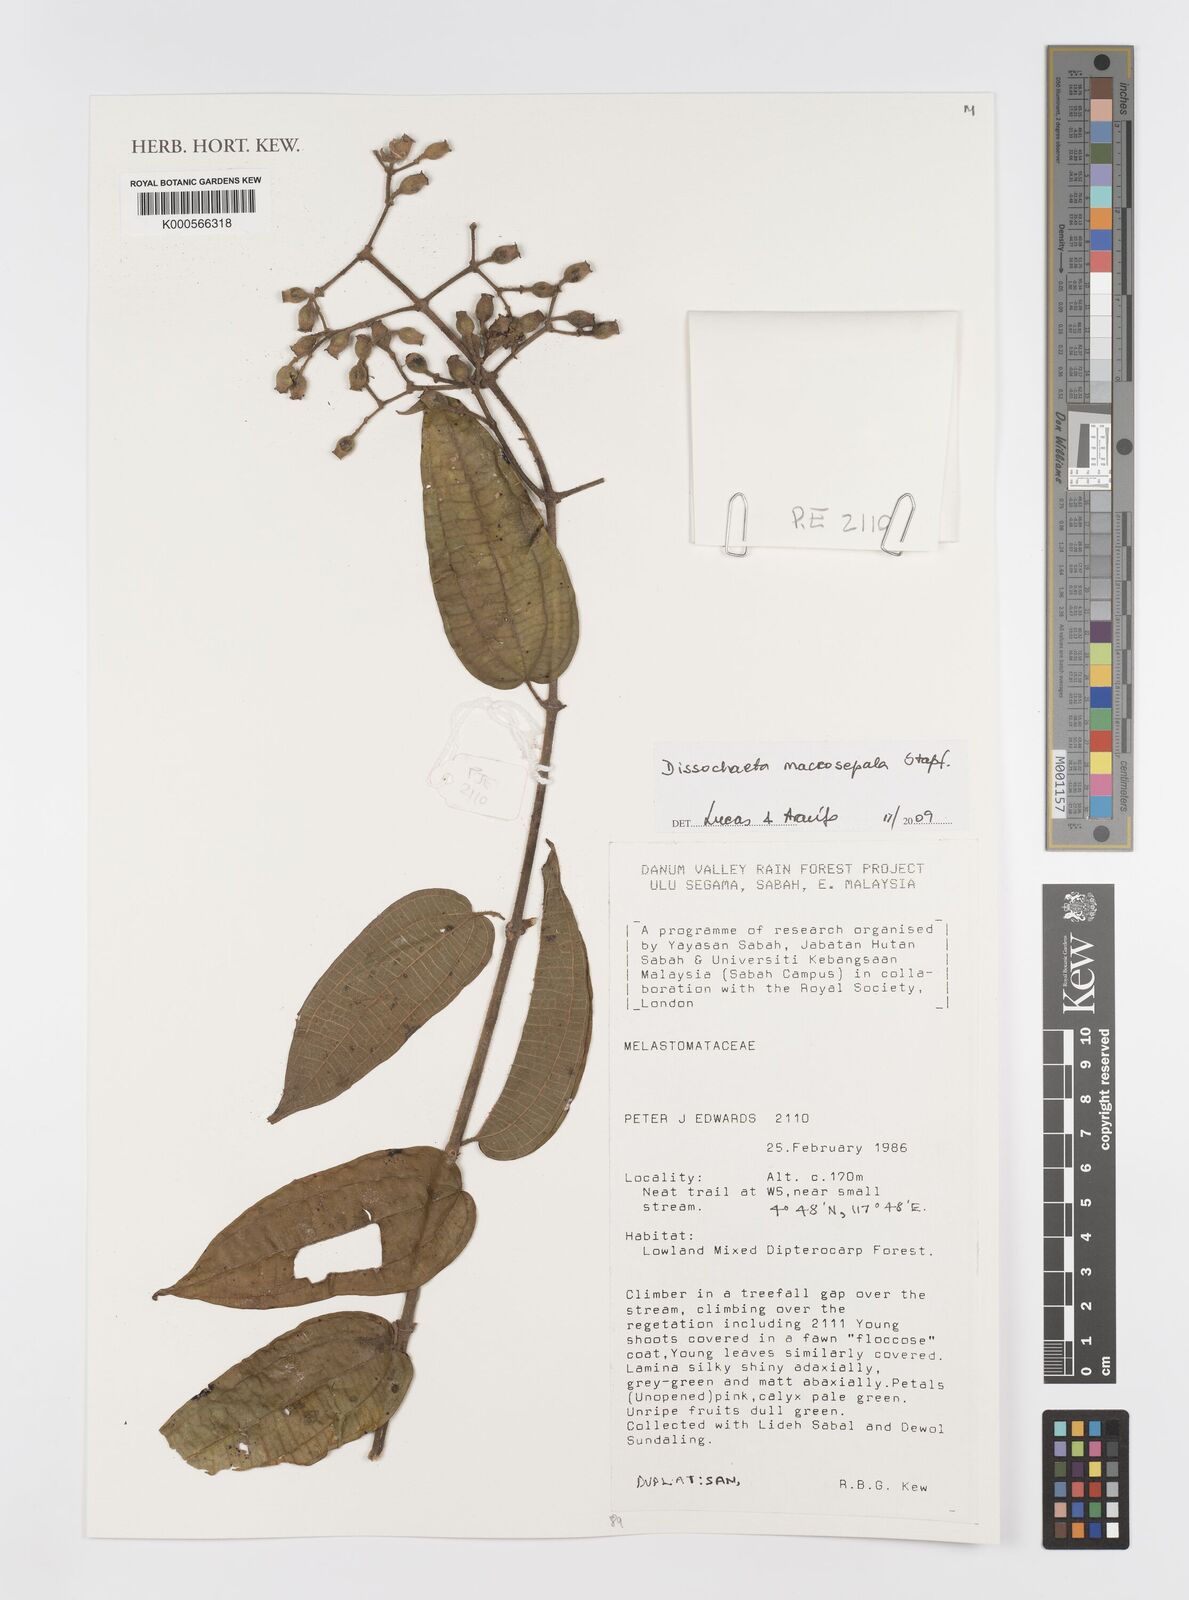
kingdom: Plantae
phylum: Tracheophyta
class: Magnoliopsida
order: Myrtales
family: Melastomataceae
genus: Dissochaeta
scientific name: Dissochaeta macrosepala
